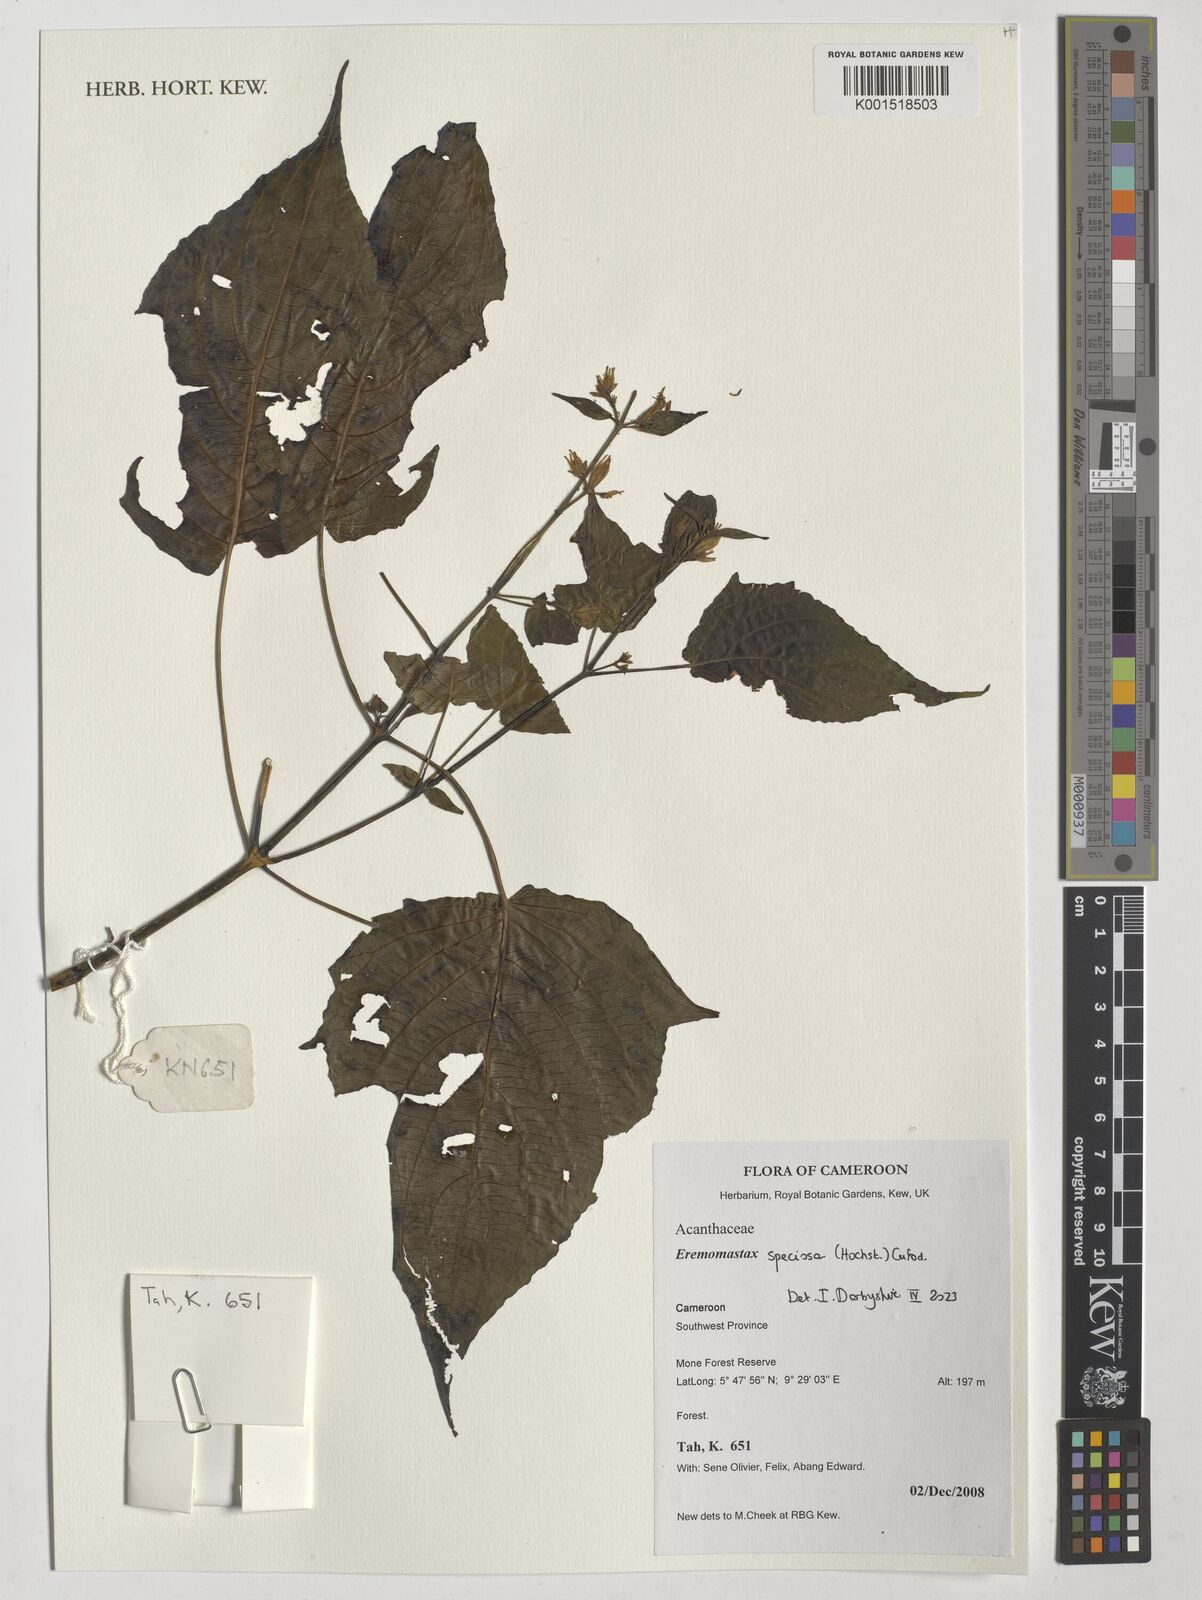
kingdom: Plantae
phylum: Tracheophyta
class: Magnoliopsida
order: Lamiales
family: Acanthaceae
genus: Eremomastax
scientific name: Eremomastax speciosa
